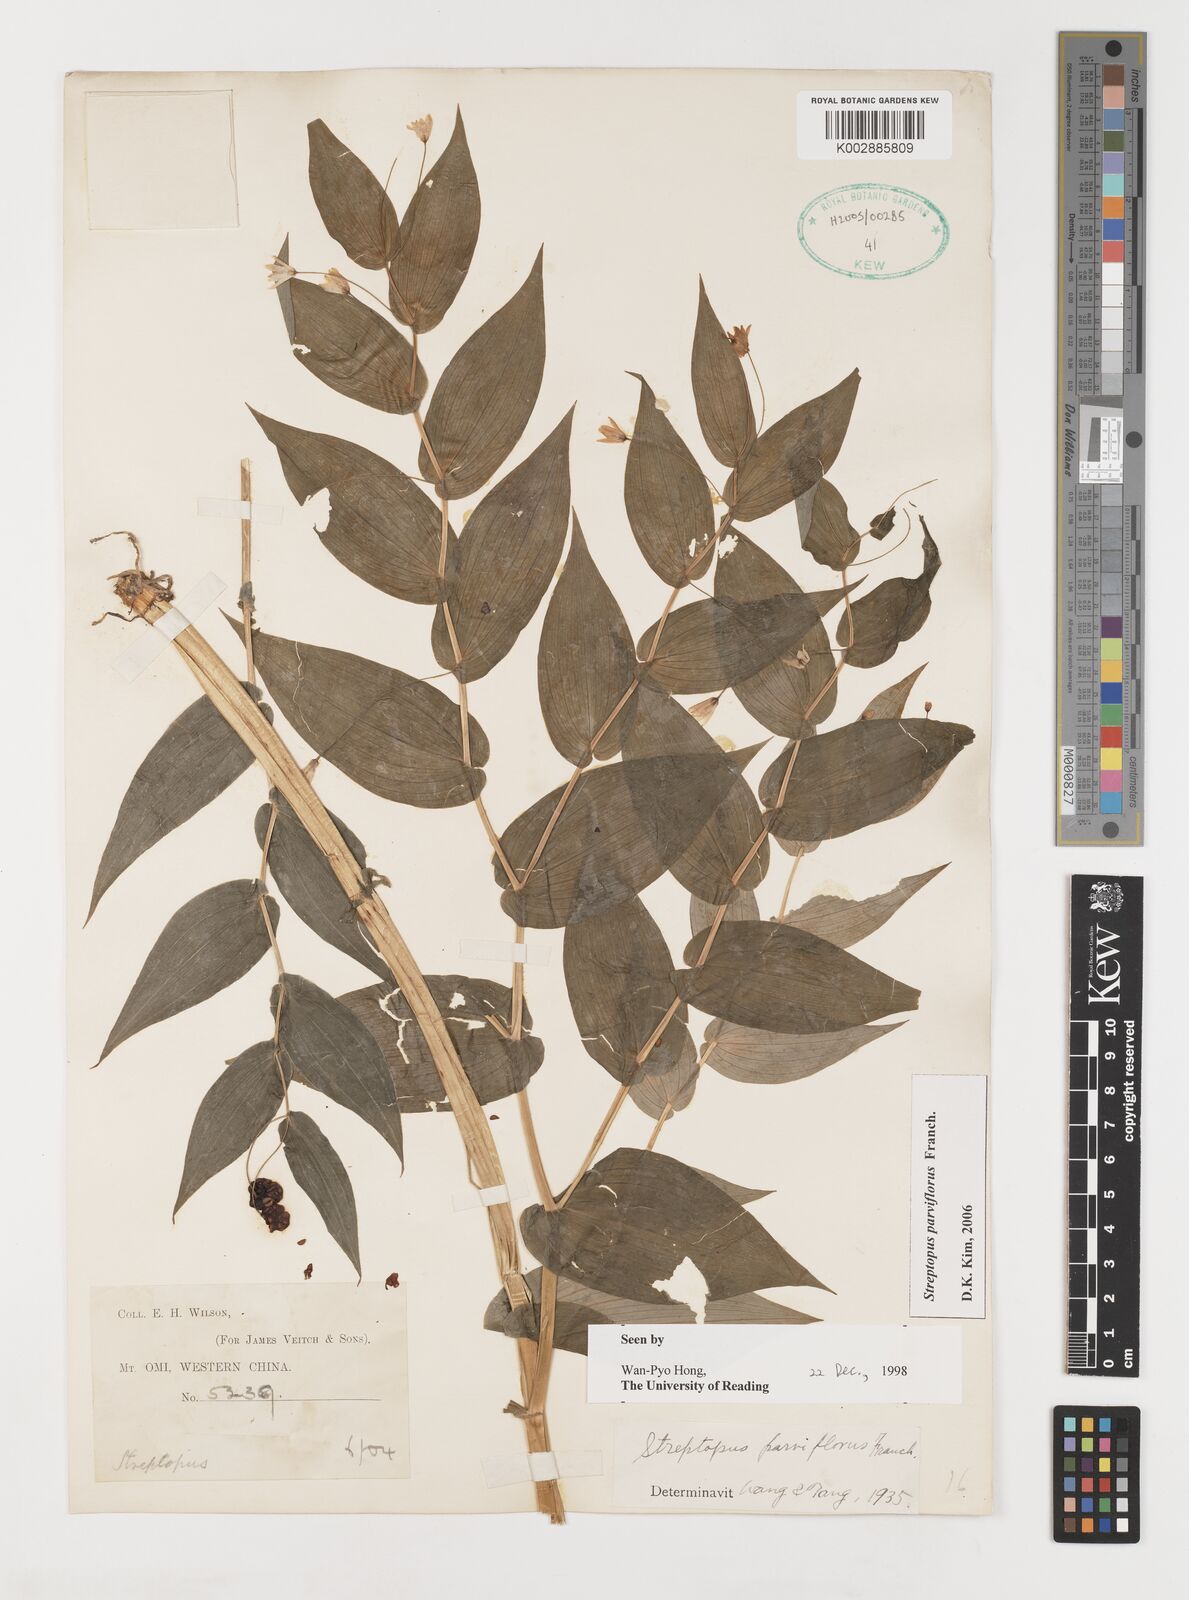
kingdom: Plantae
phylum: Tracheophyta
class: Liliopsida
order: Liliales
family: Liliaceae
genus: Streptopus
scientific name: Streptopus parviflorus
